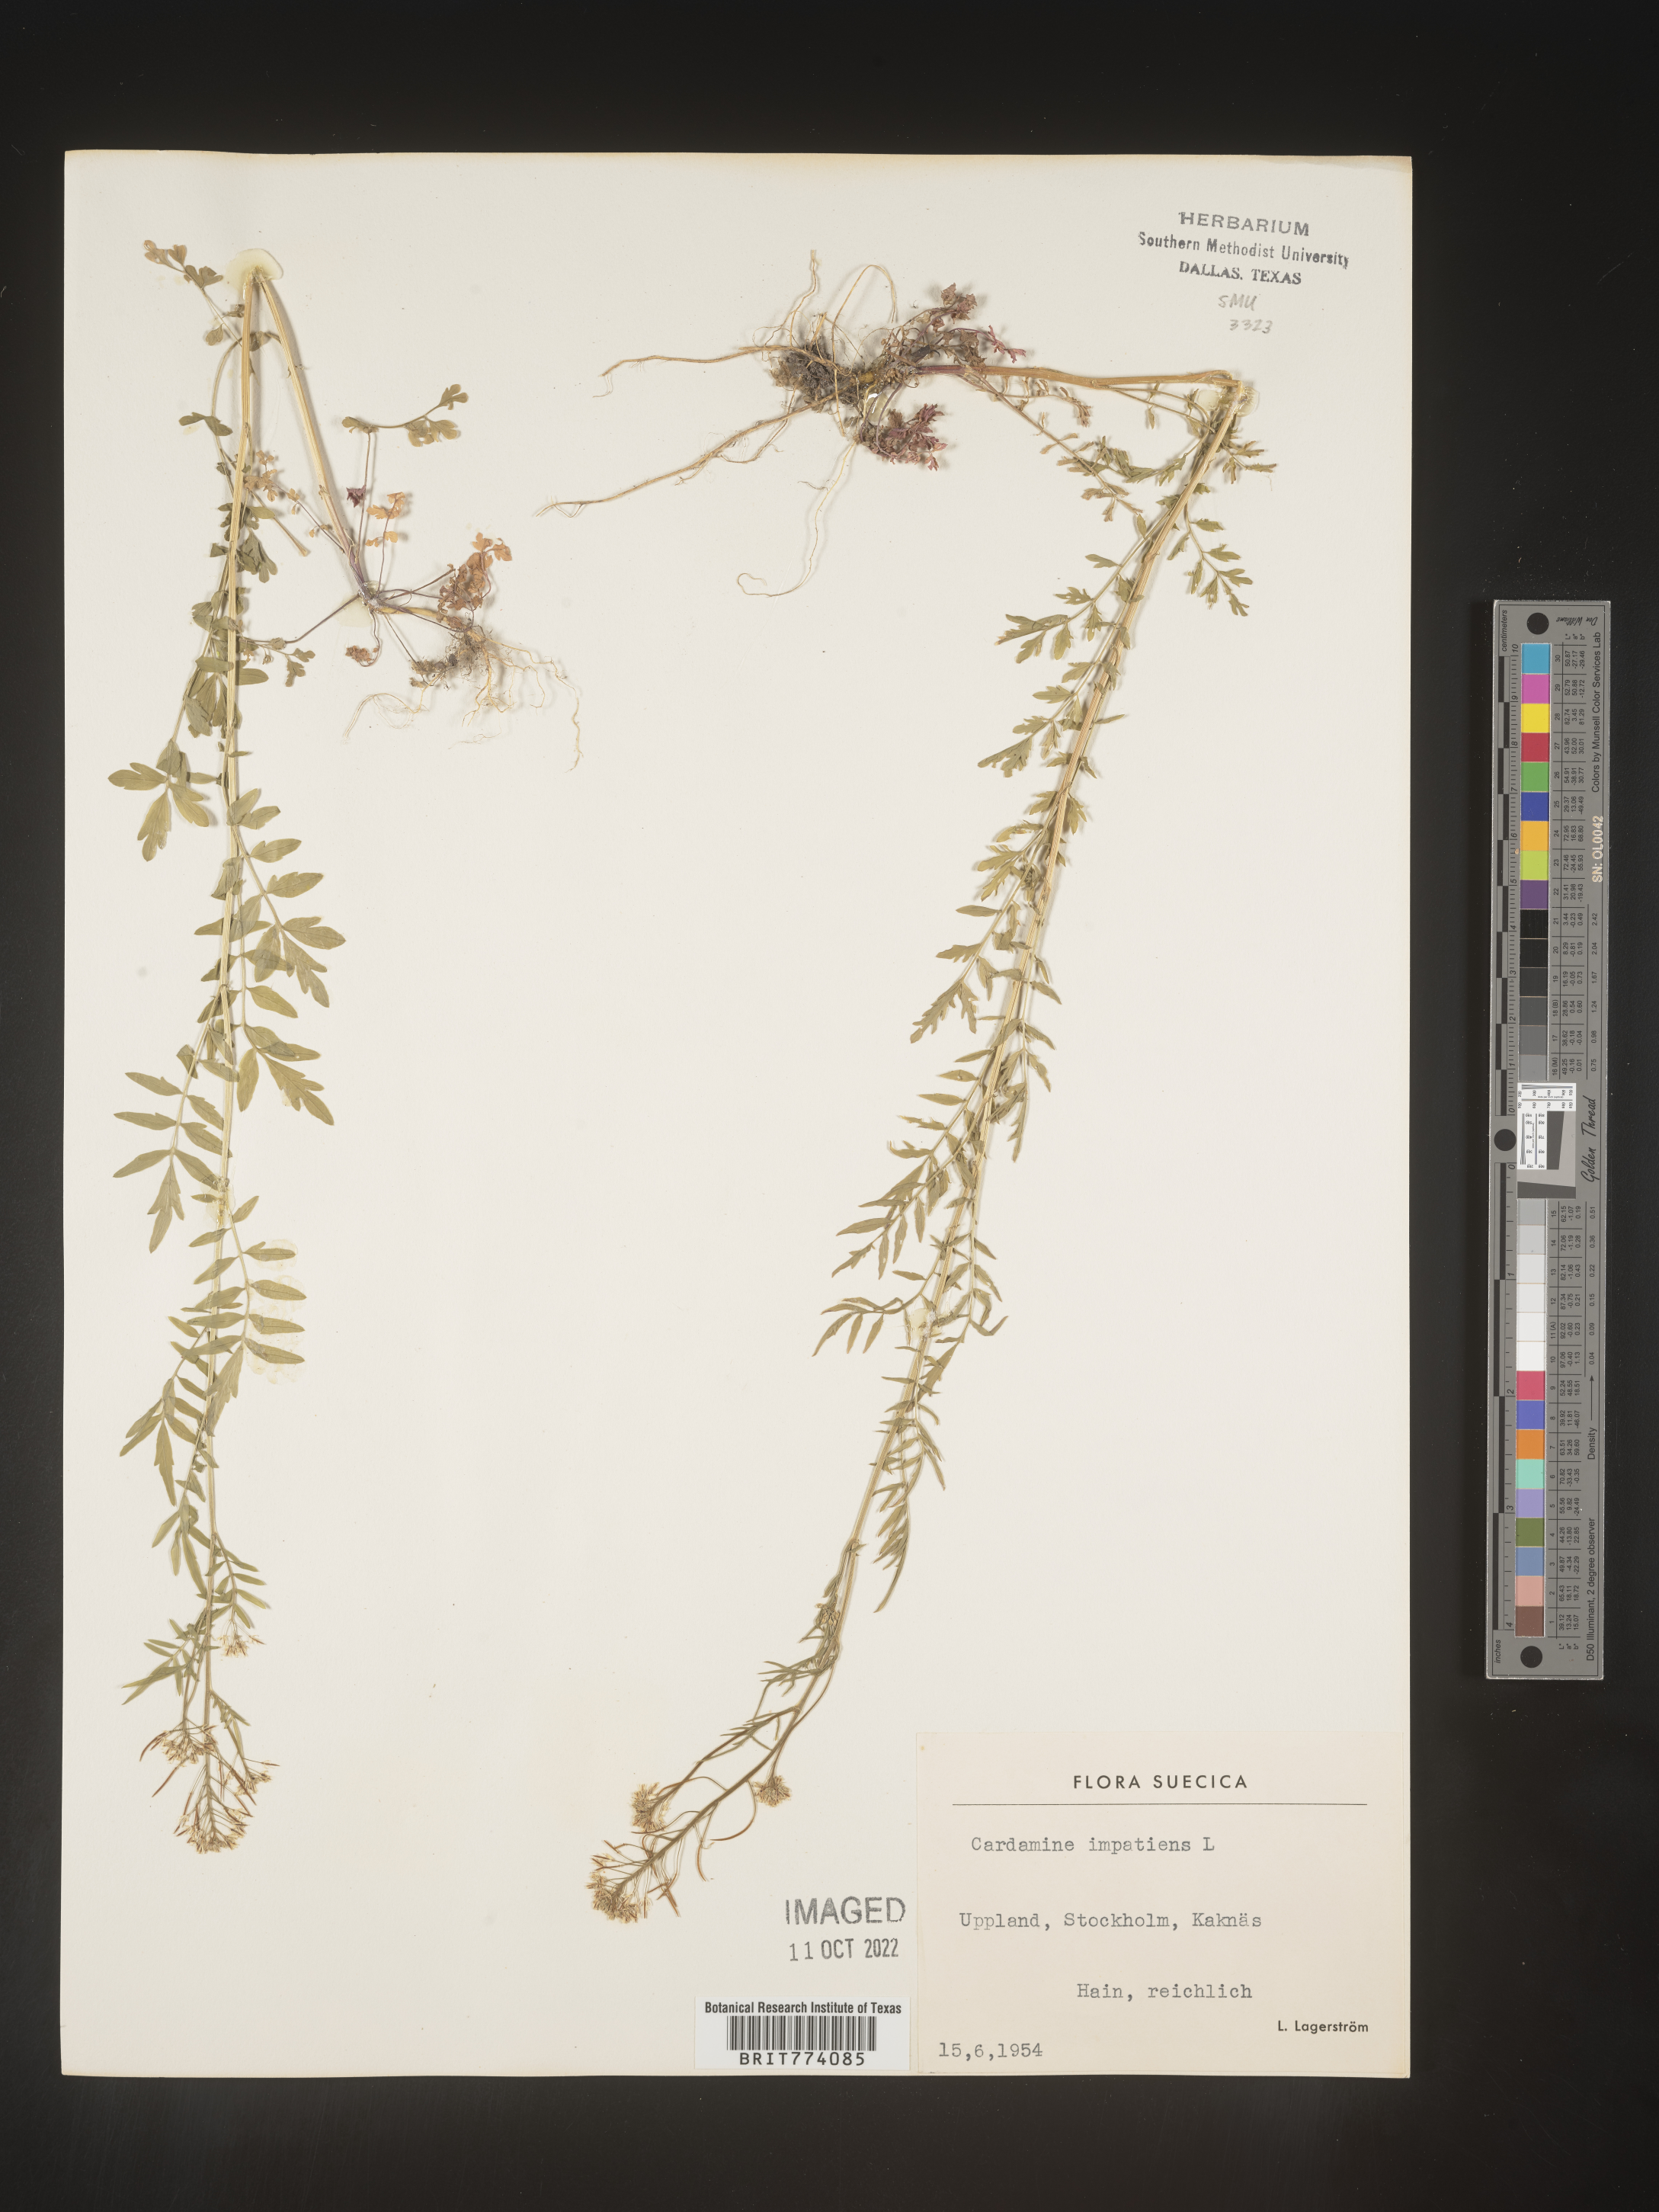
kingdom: Plantae
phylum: Tracheophyta
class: Magnoliopsida
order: Brassicales
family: Brassicaceae
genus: Cardamine
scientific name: Cardamine
